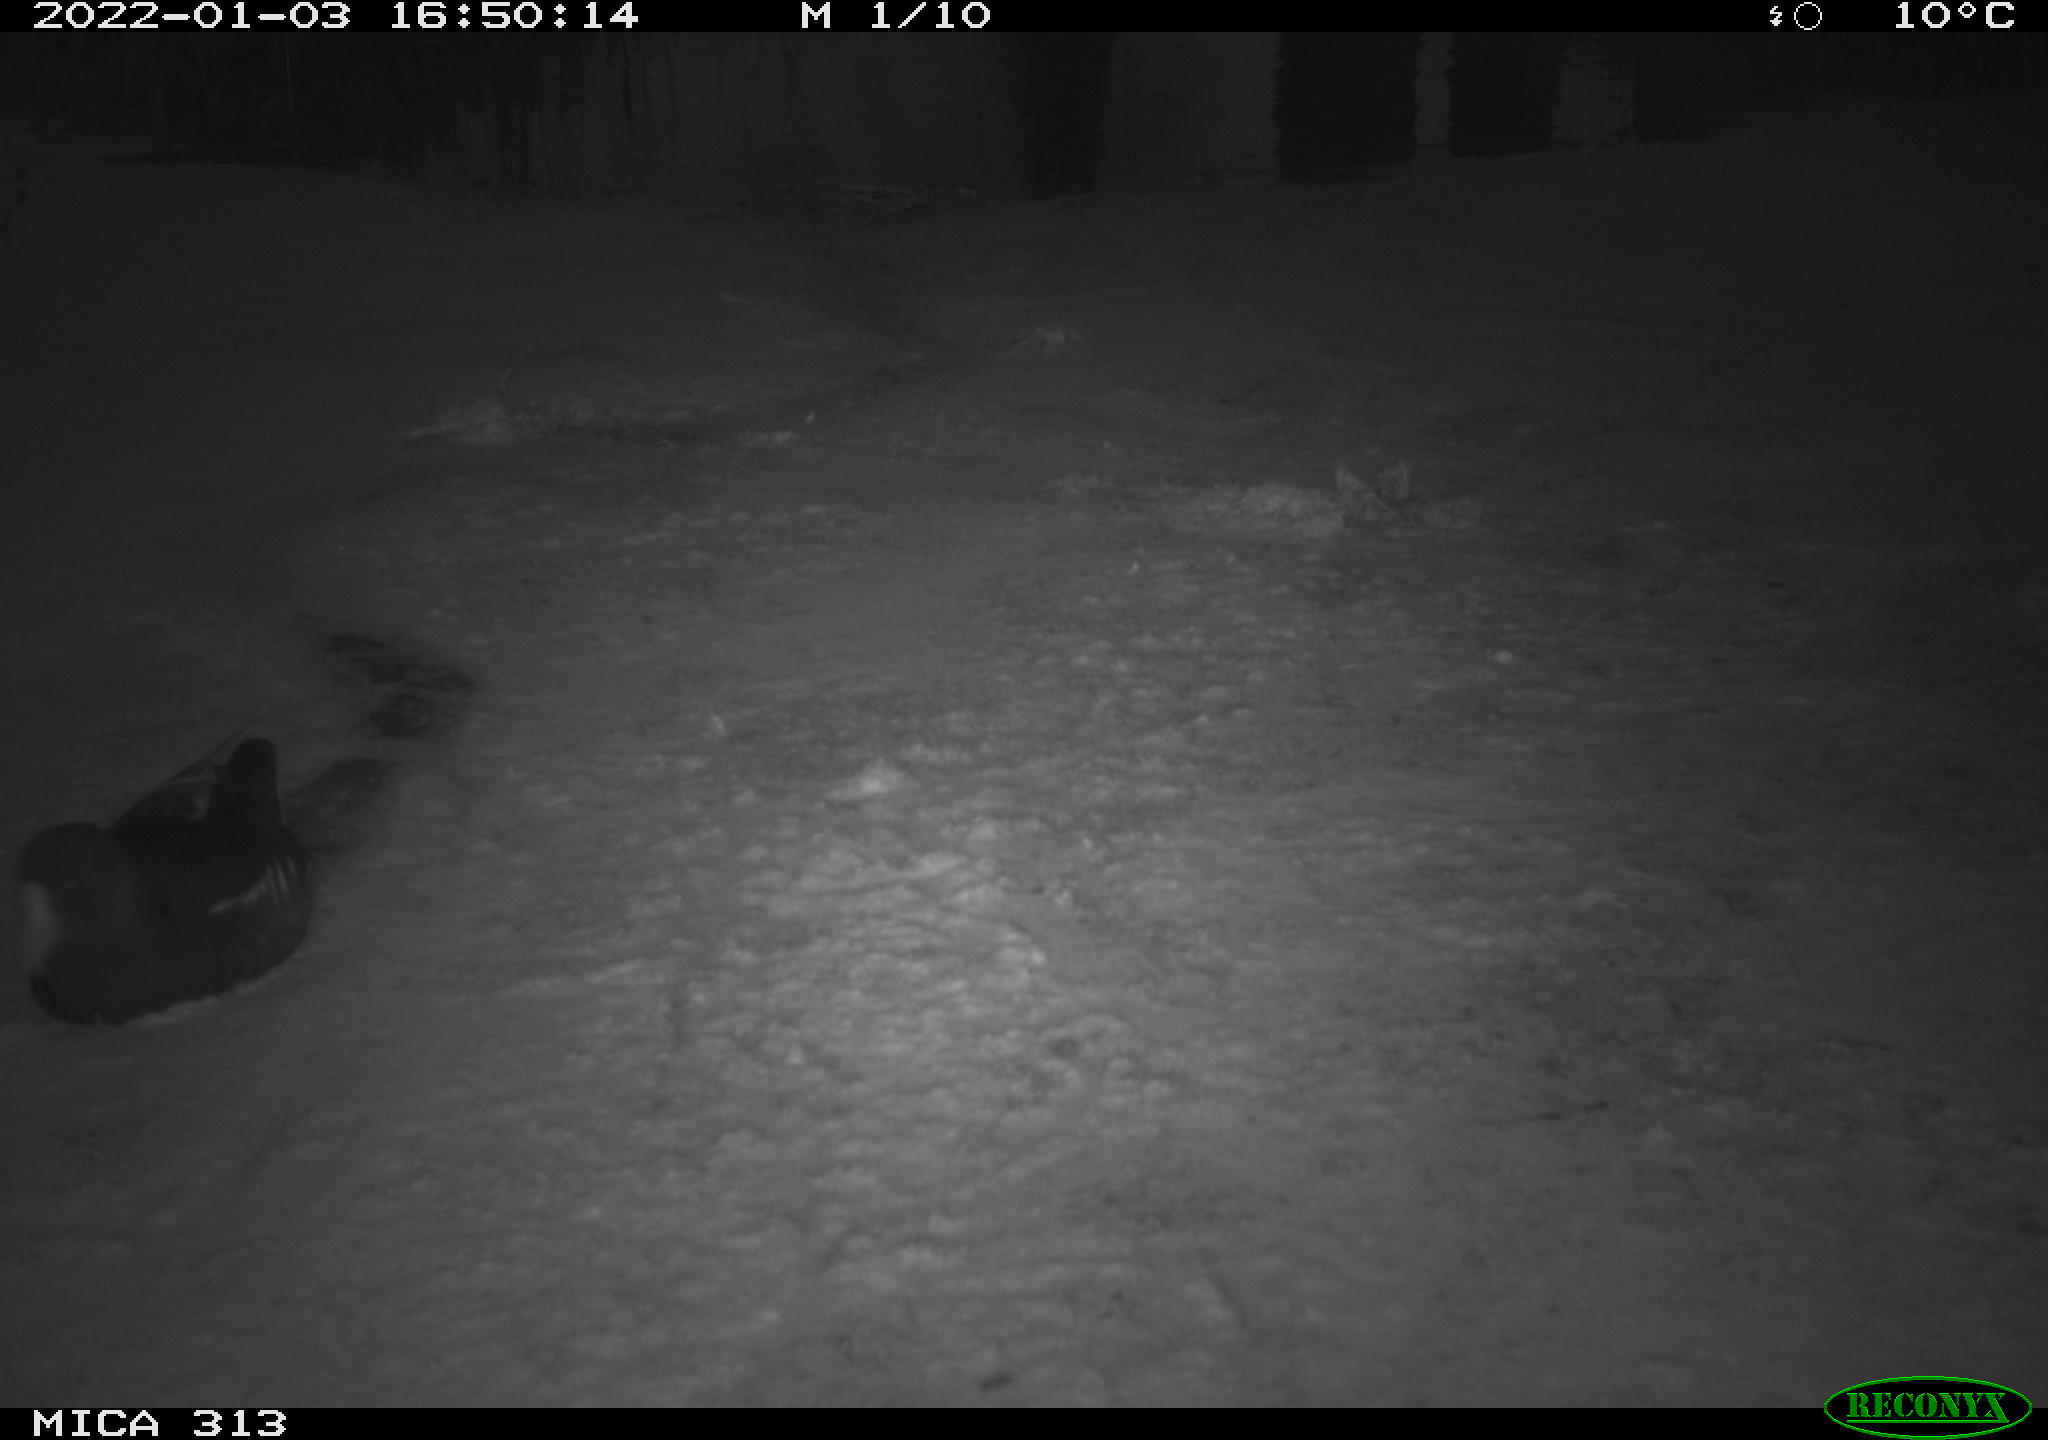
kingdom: Animalia
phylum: Chordata
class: Aves
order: Gruiformes
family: Rallidae
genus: Gallinula
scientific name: Gallinula chloropus
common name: Common moorhen
